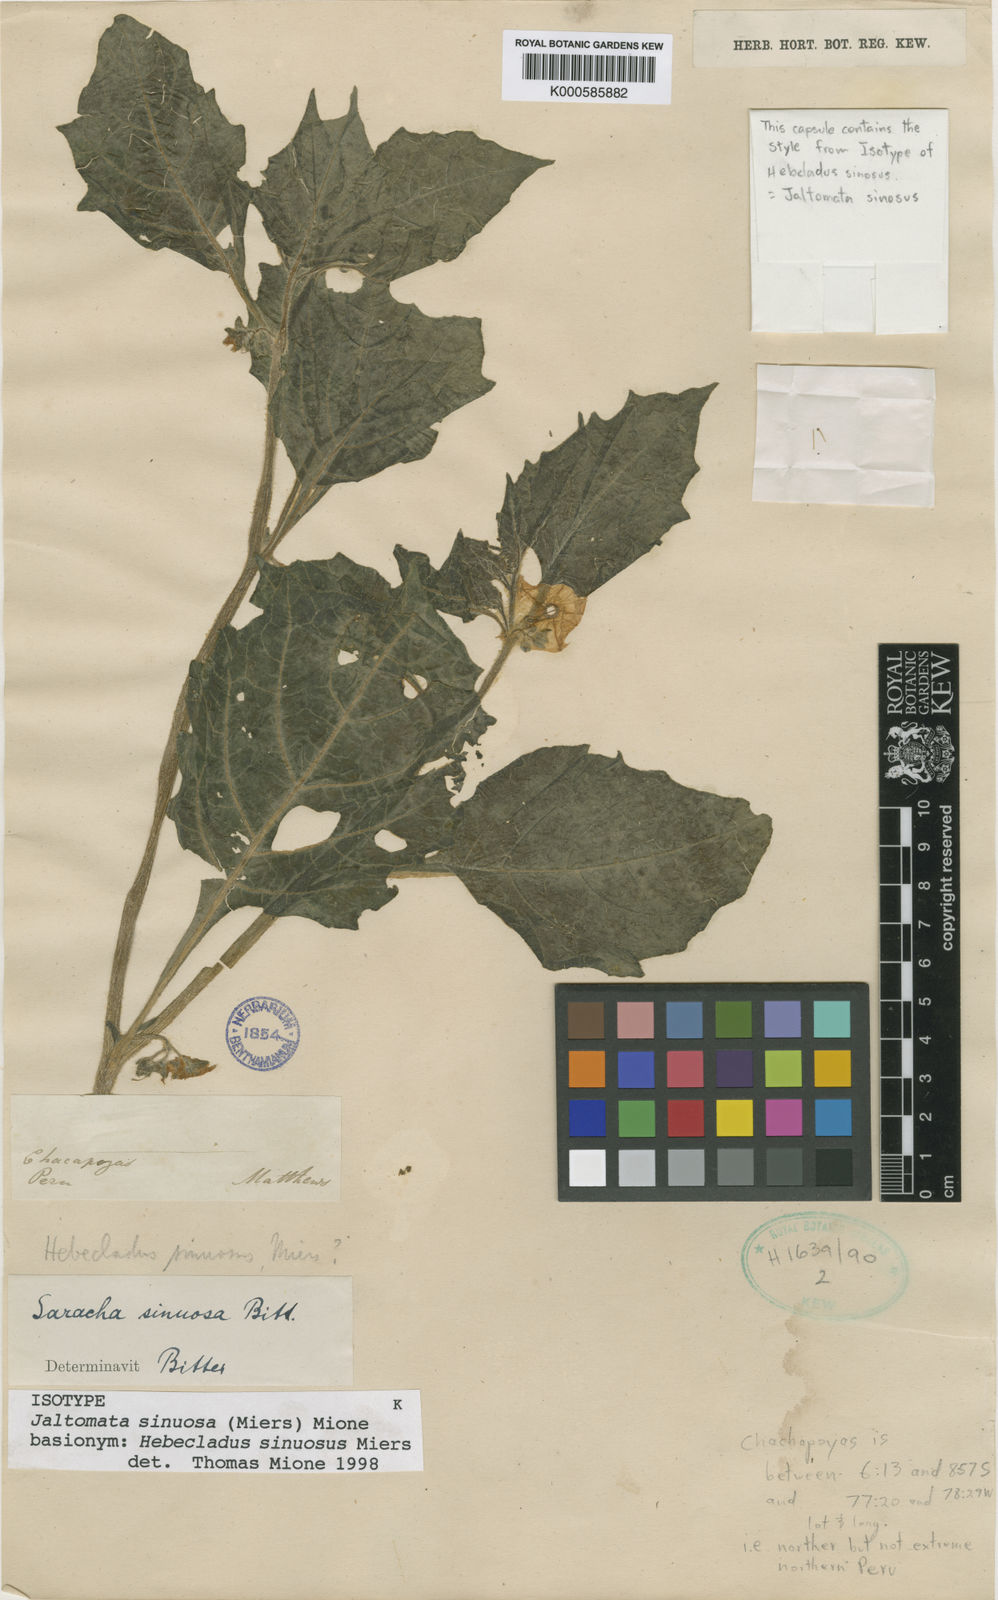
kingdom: Plantae
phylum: Tracheophyta
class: Magnoliopsida
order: Solanales
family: Solanaceae
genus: Jaltomata
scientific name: Jaltomata sinuosa
